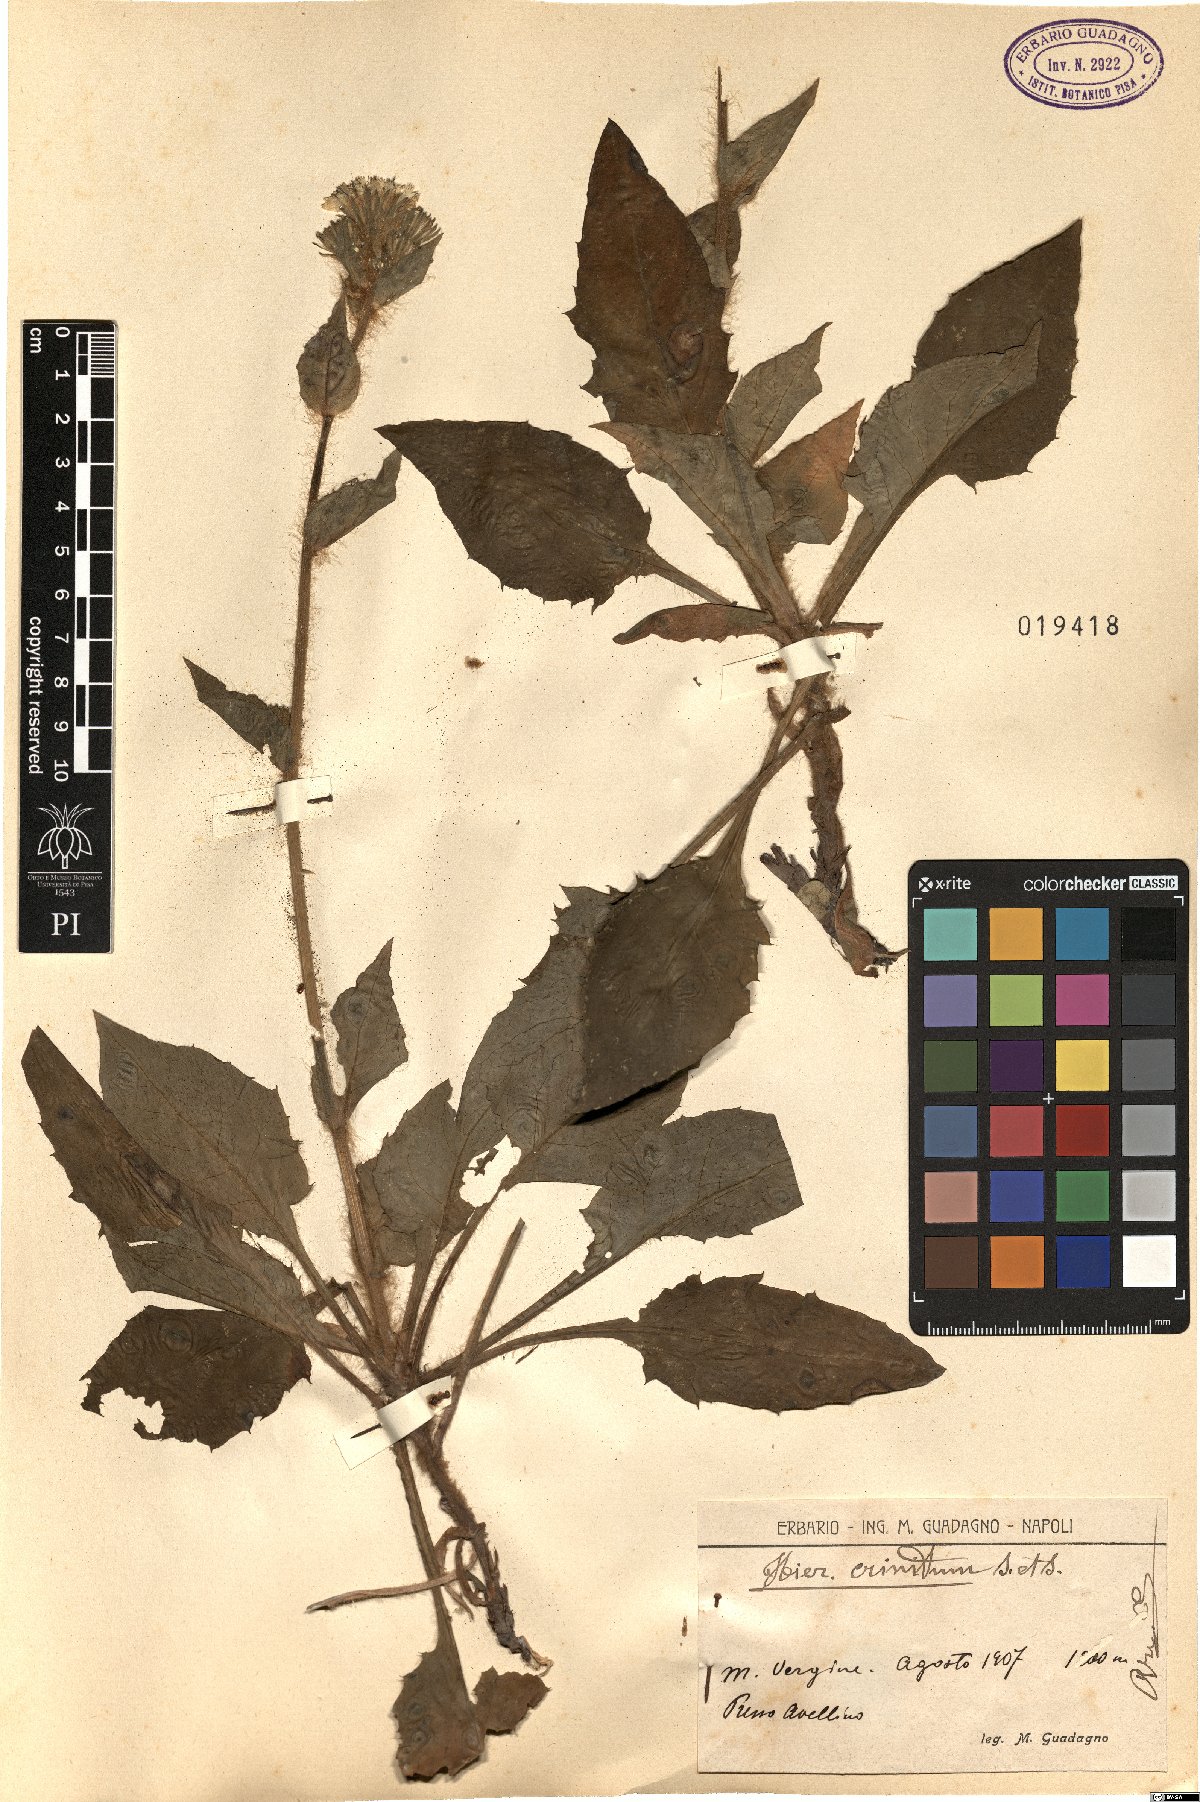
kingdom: Plantae
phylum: Tracheophyta
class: Magnoliopsida
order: Asterales
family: Asteraceae
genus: Hieracium
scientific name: Hieracium racemosum
